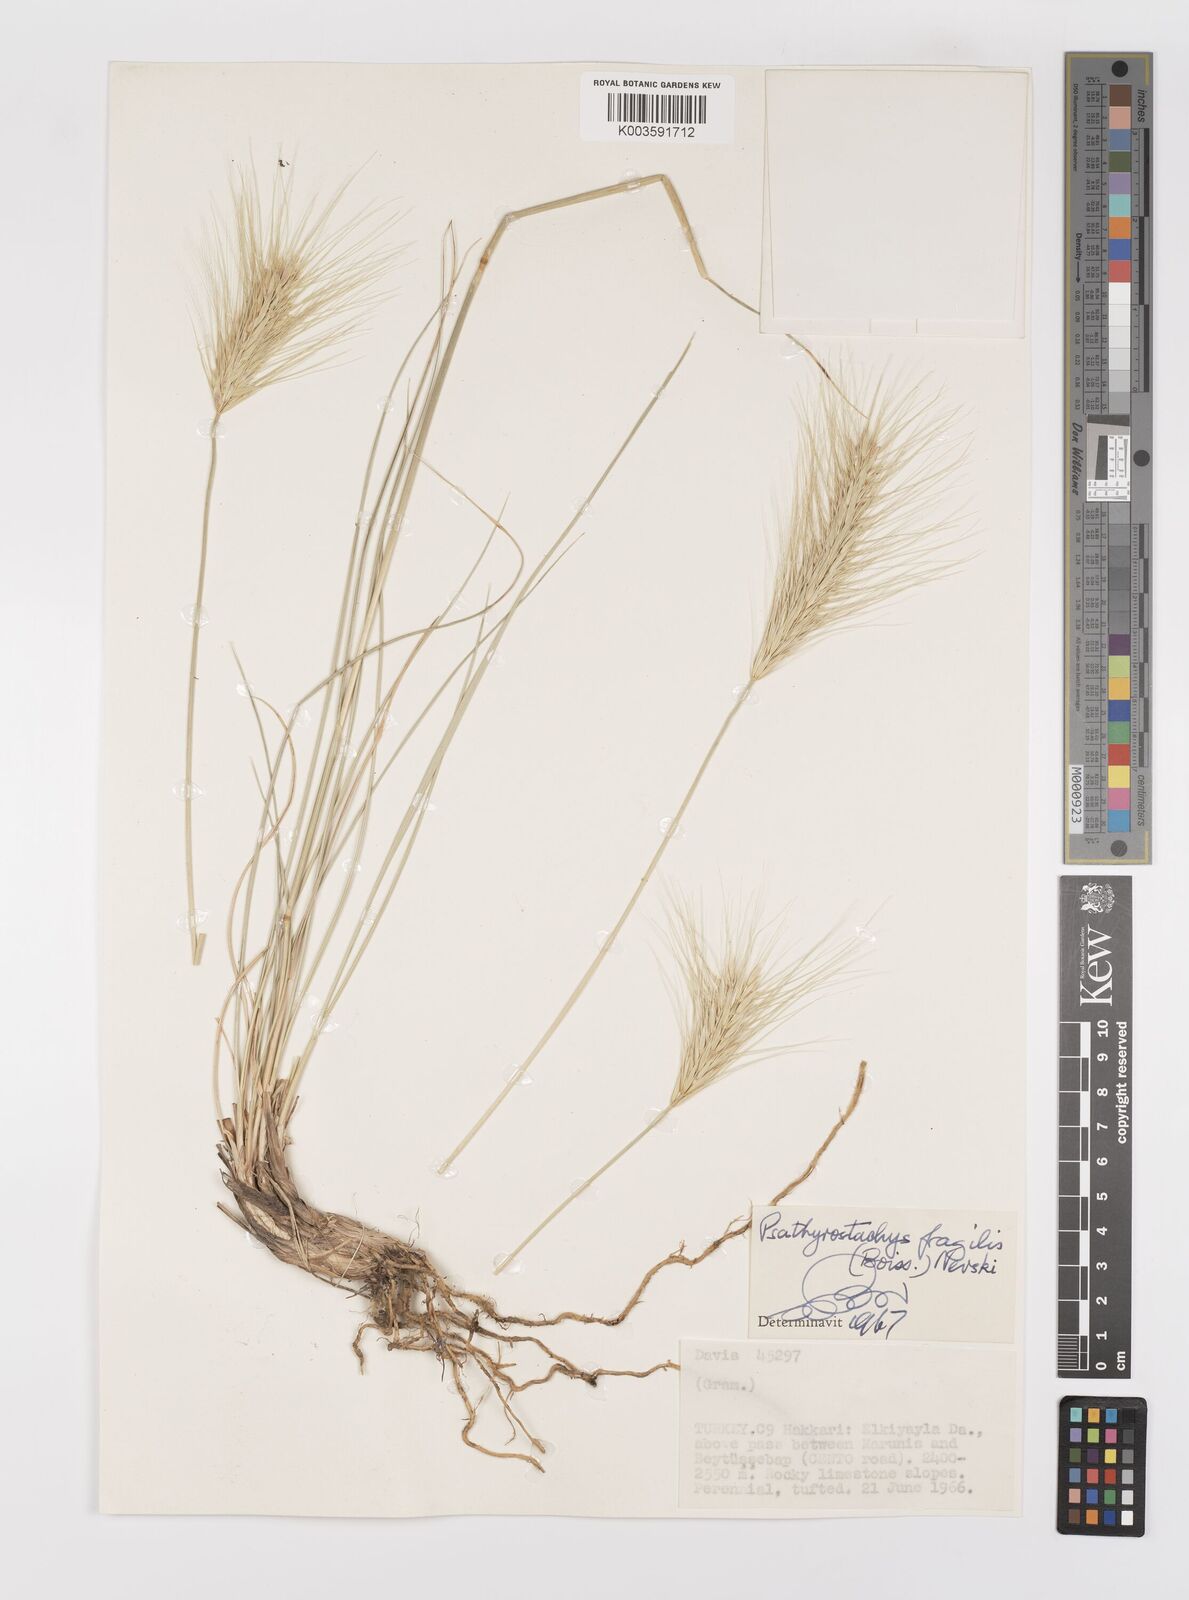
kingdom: Plantae
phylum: Tracheophyta
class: Liliopsida
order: Poales
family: Poaceae
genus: Psathyrostachys
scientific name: Psathyrostachys fragilis
